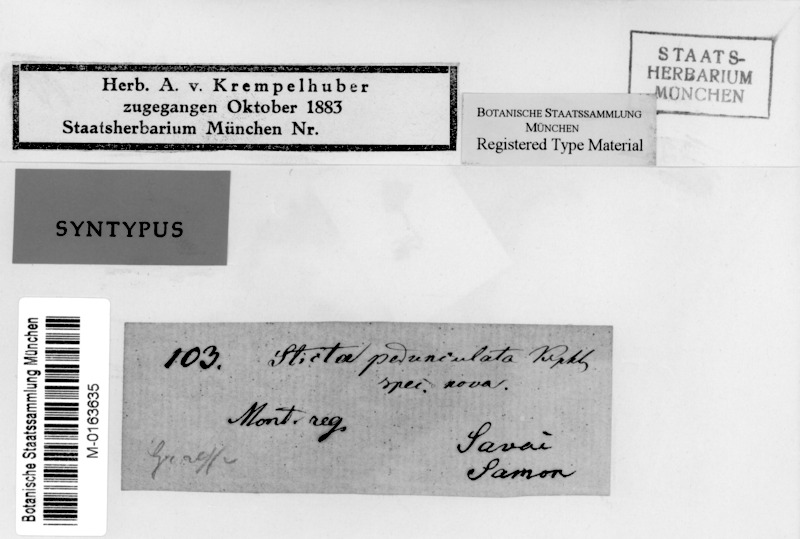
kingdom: Fungi
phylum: Ascomycota
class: Lecanoromycetes
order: Peltigerales
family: Lobariaceae
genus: Sticta
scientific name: Sticta pedunculata
